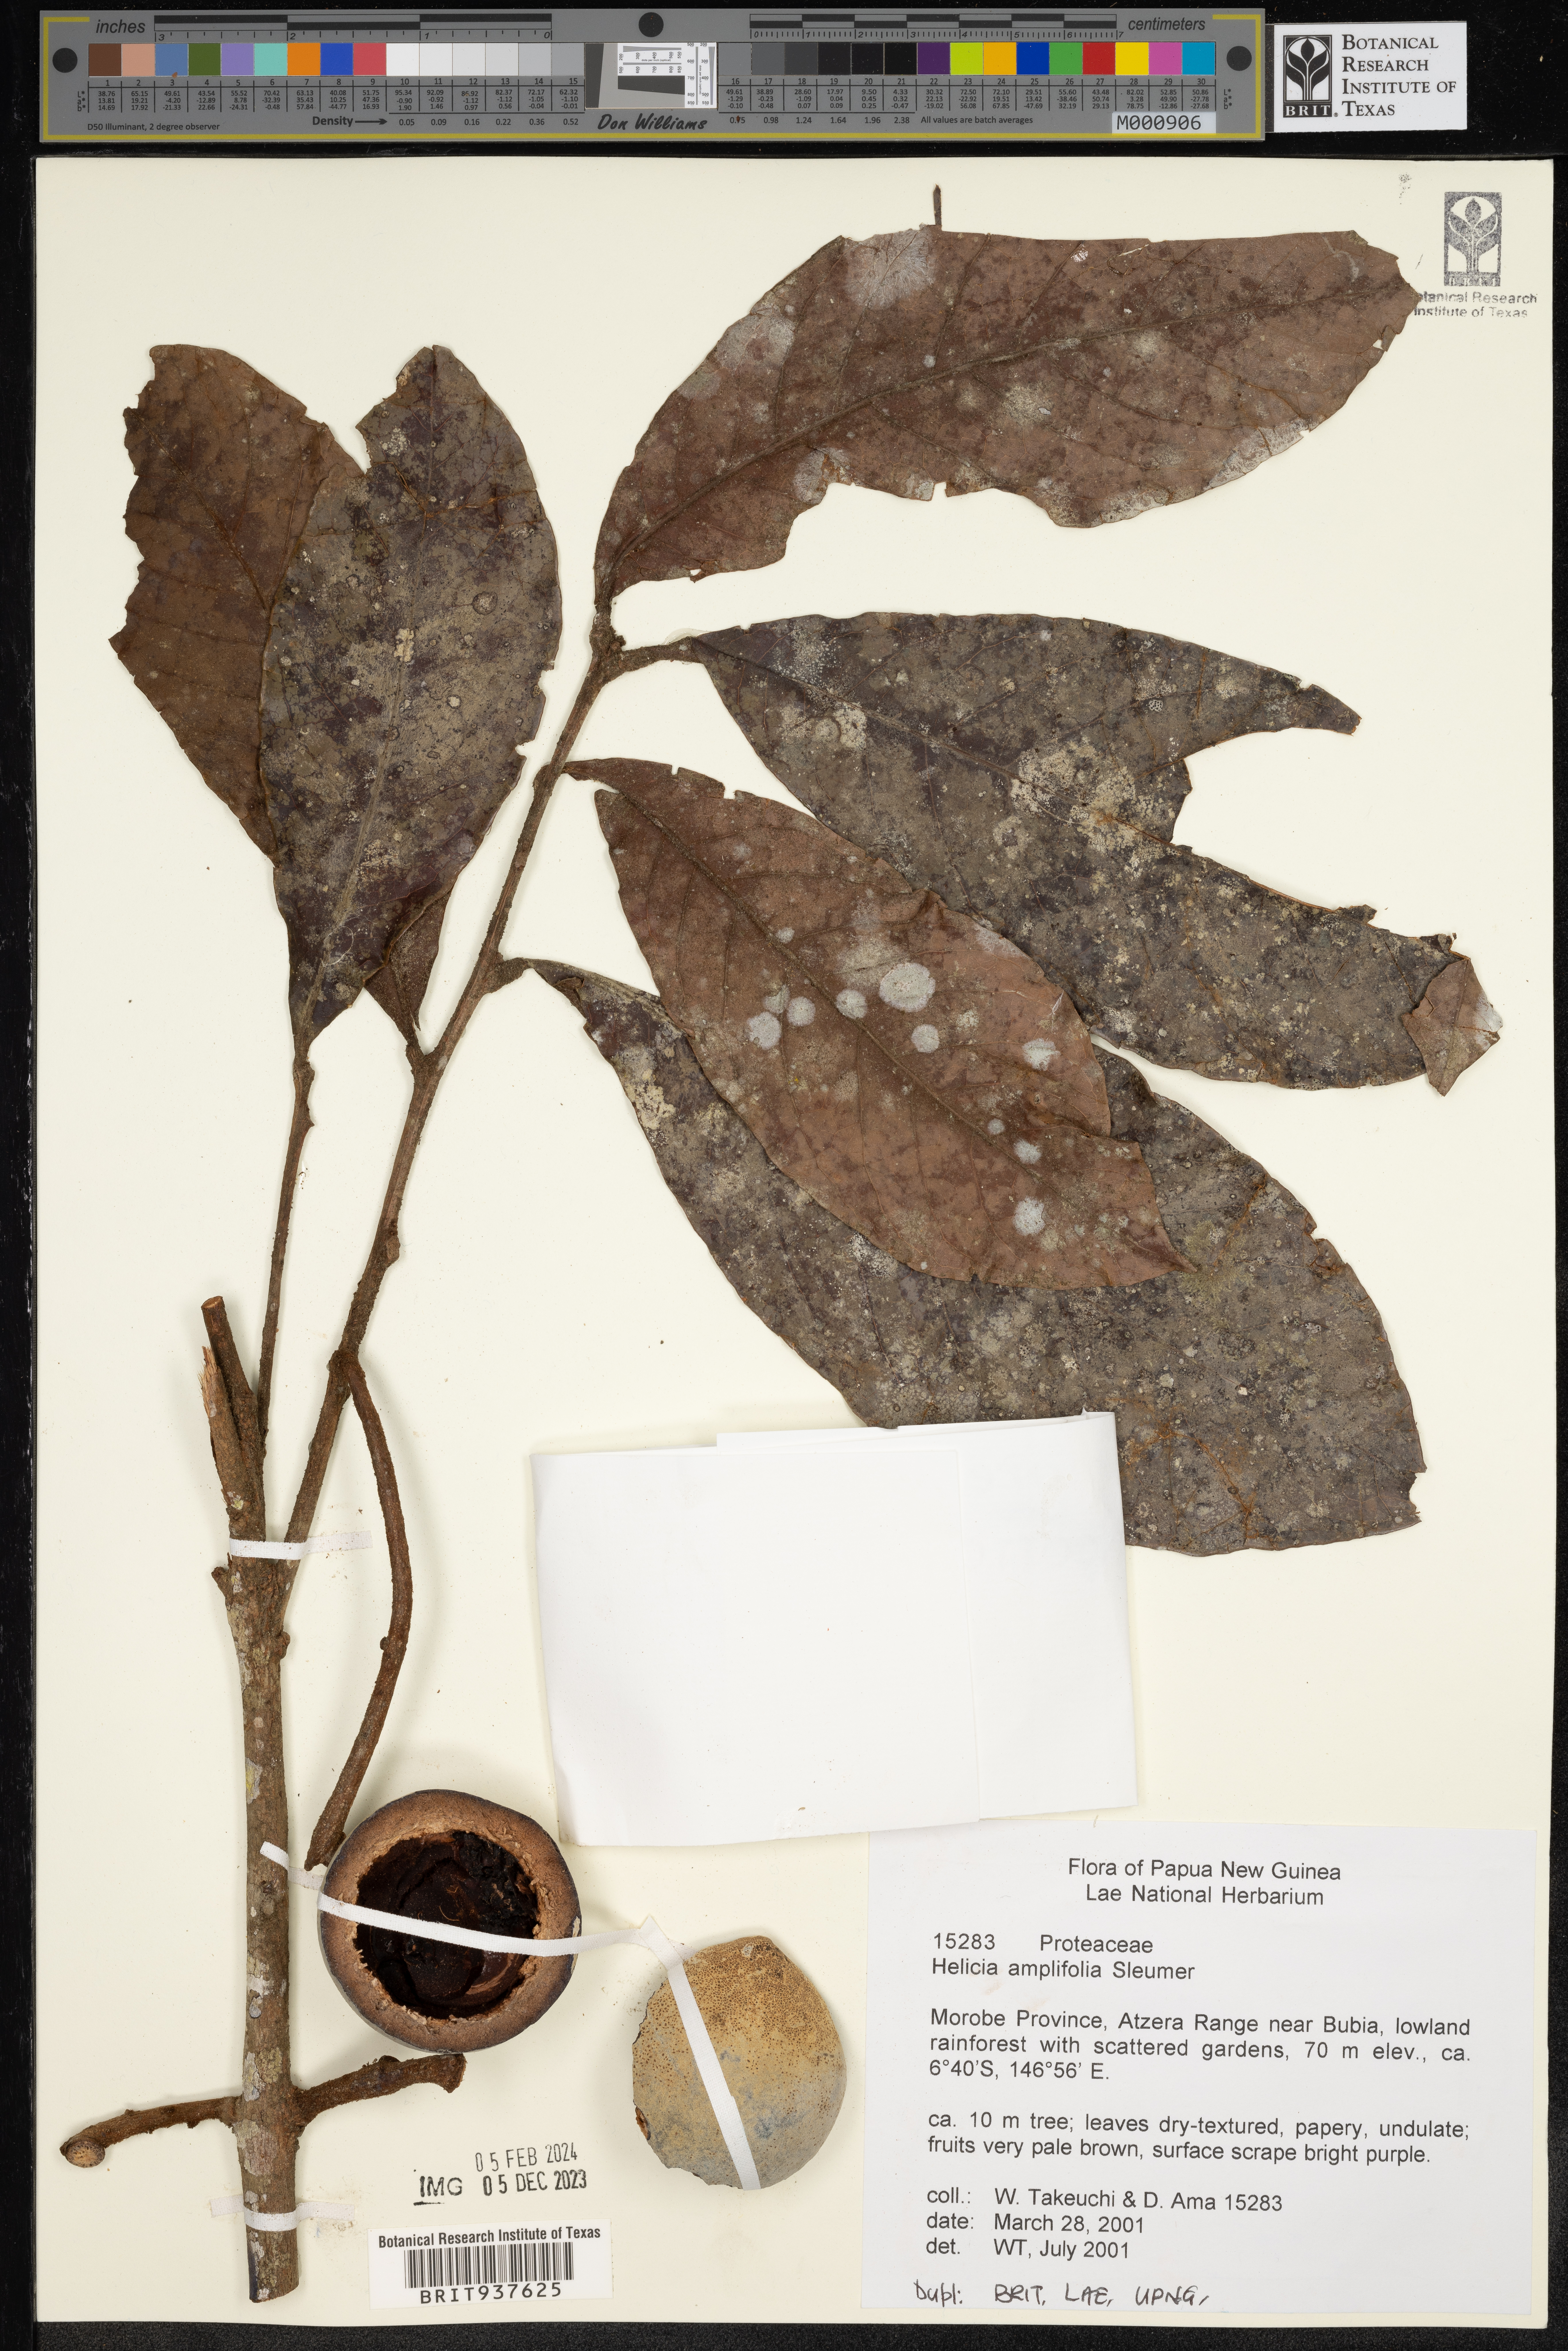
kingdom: Plantae
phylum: Tracheophyta
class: Magnoliopsida
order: Proteales
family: Proteaceae
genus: Helicia
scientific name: Helicia
